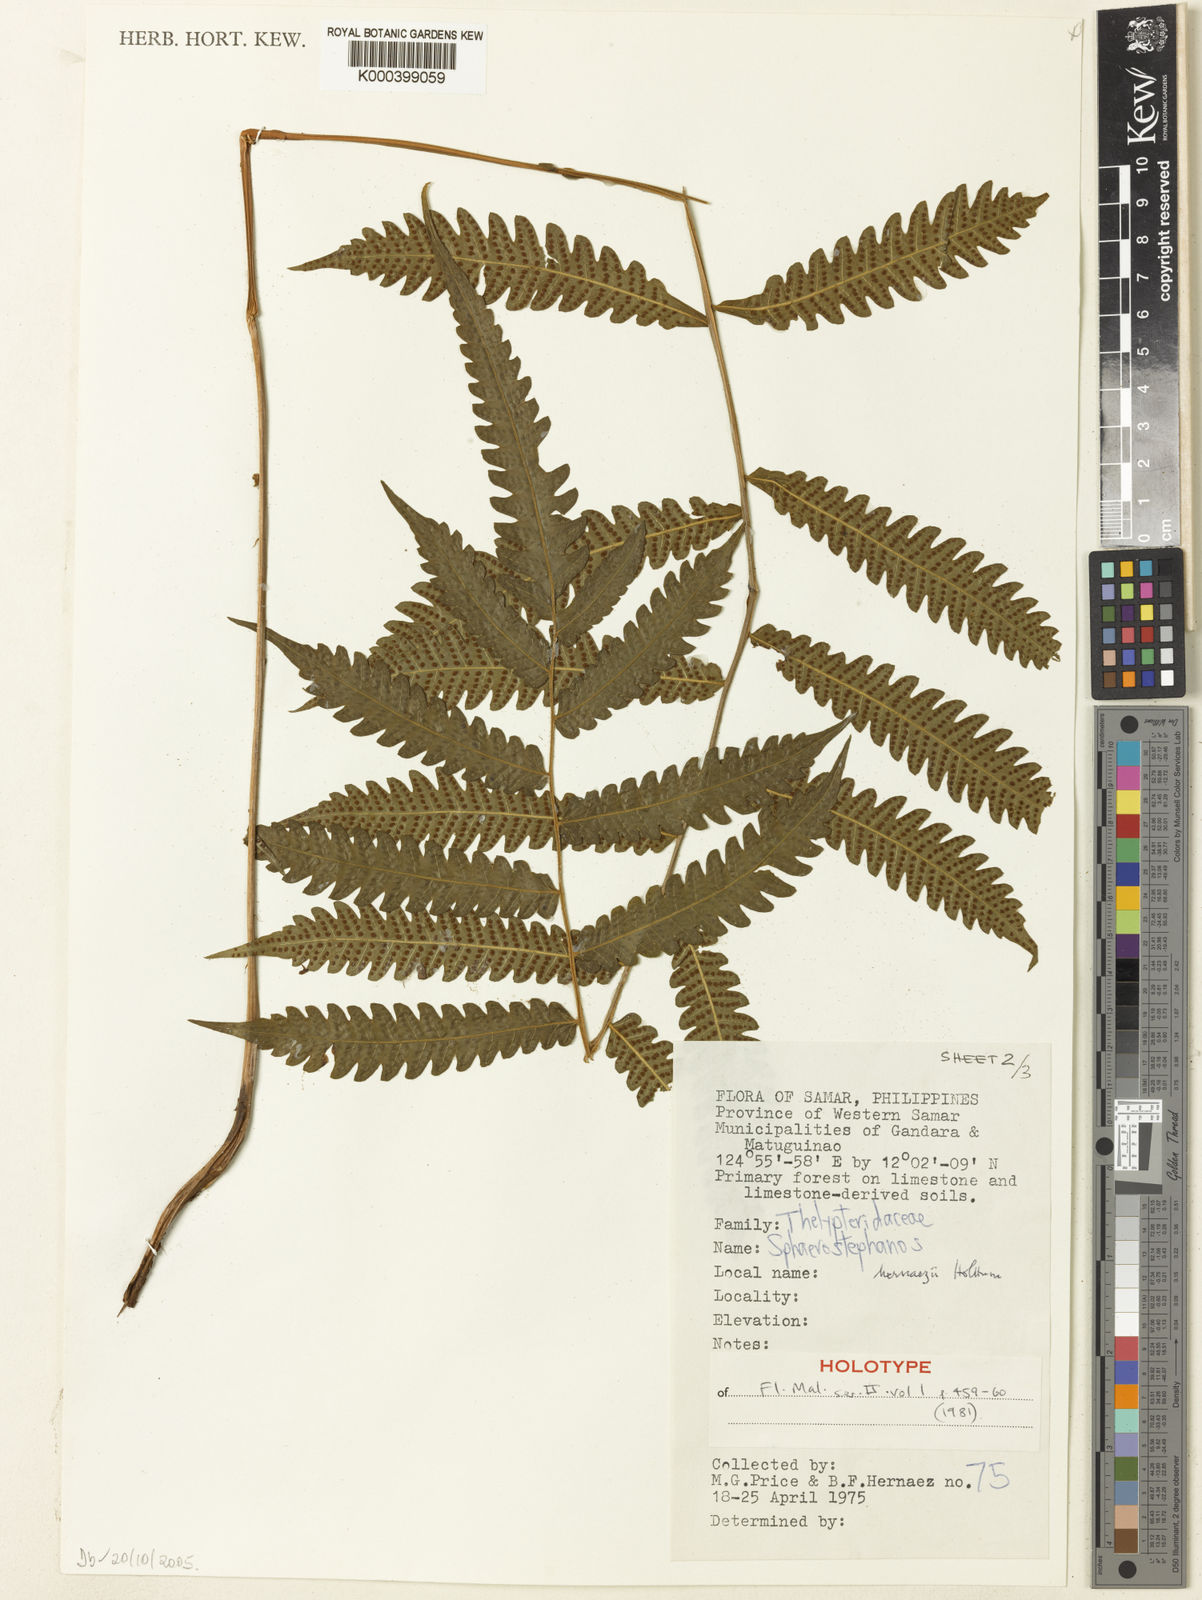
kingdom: Plantae
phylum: Tracheophyta
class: Polypodiopsida
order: Polypodiales
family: Thelypteridaceae
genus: Sphaerostephanos
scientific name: Sphaerostephanos hernaezii
